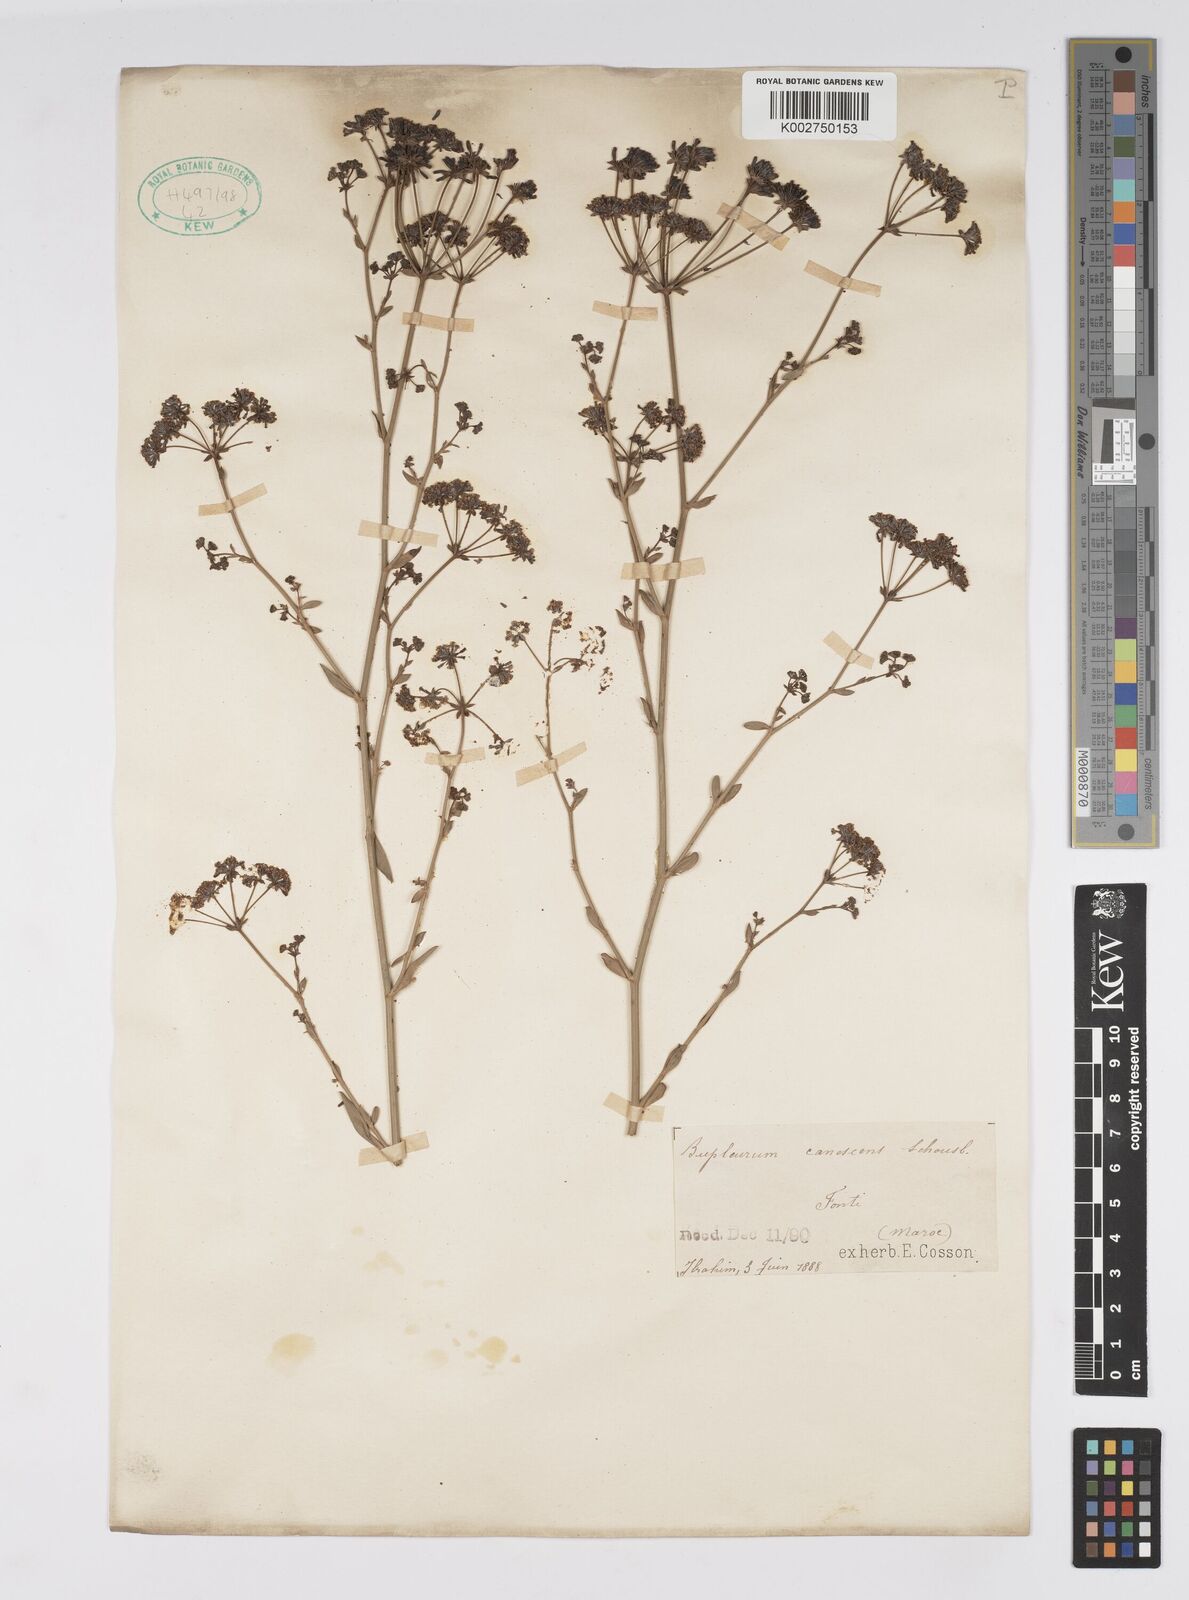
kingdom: Plantae
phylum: Tracheophyta
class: Magnoliopsida
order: Apiales
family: Apiaceae
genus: Bupleurum
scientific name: Bupleurum canescens
